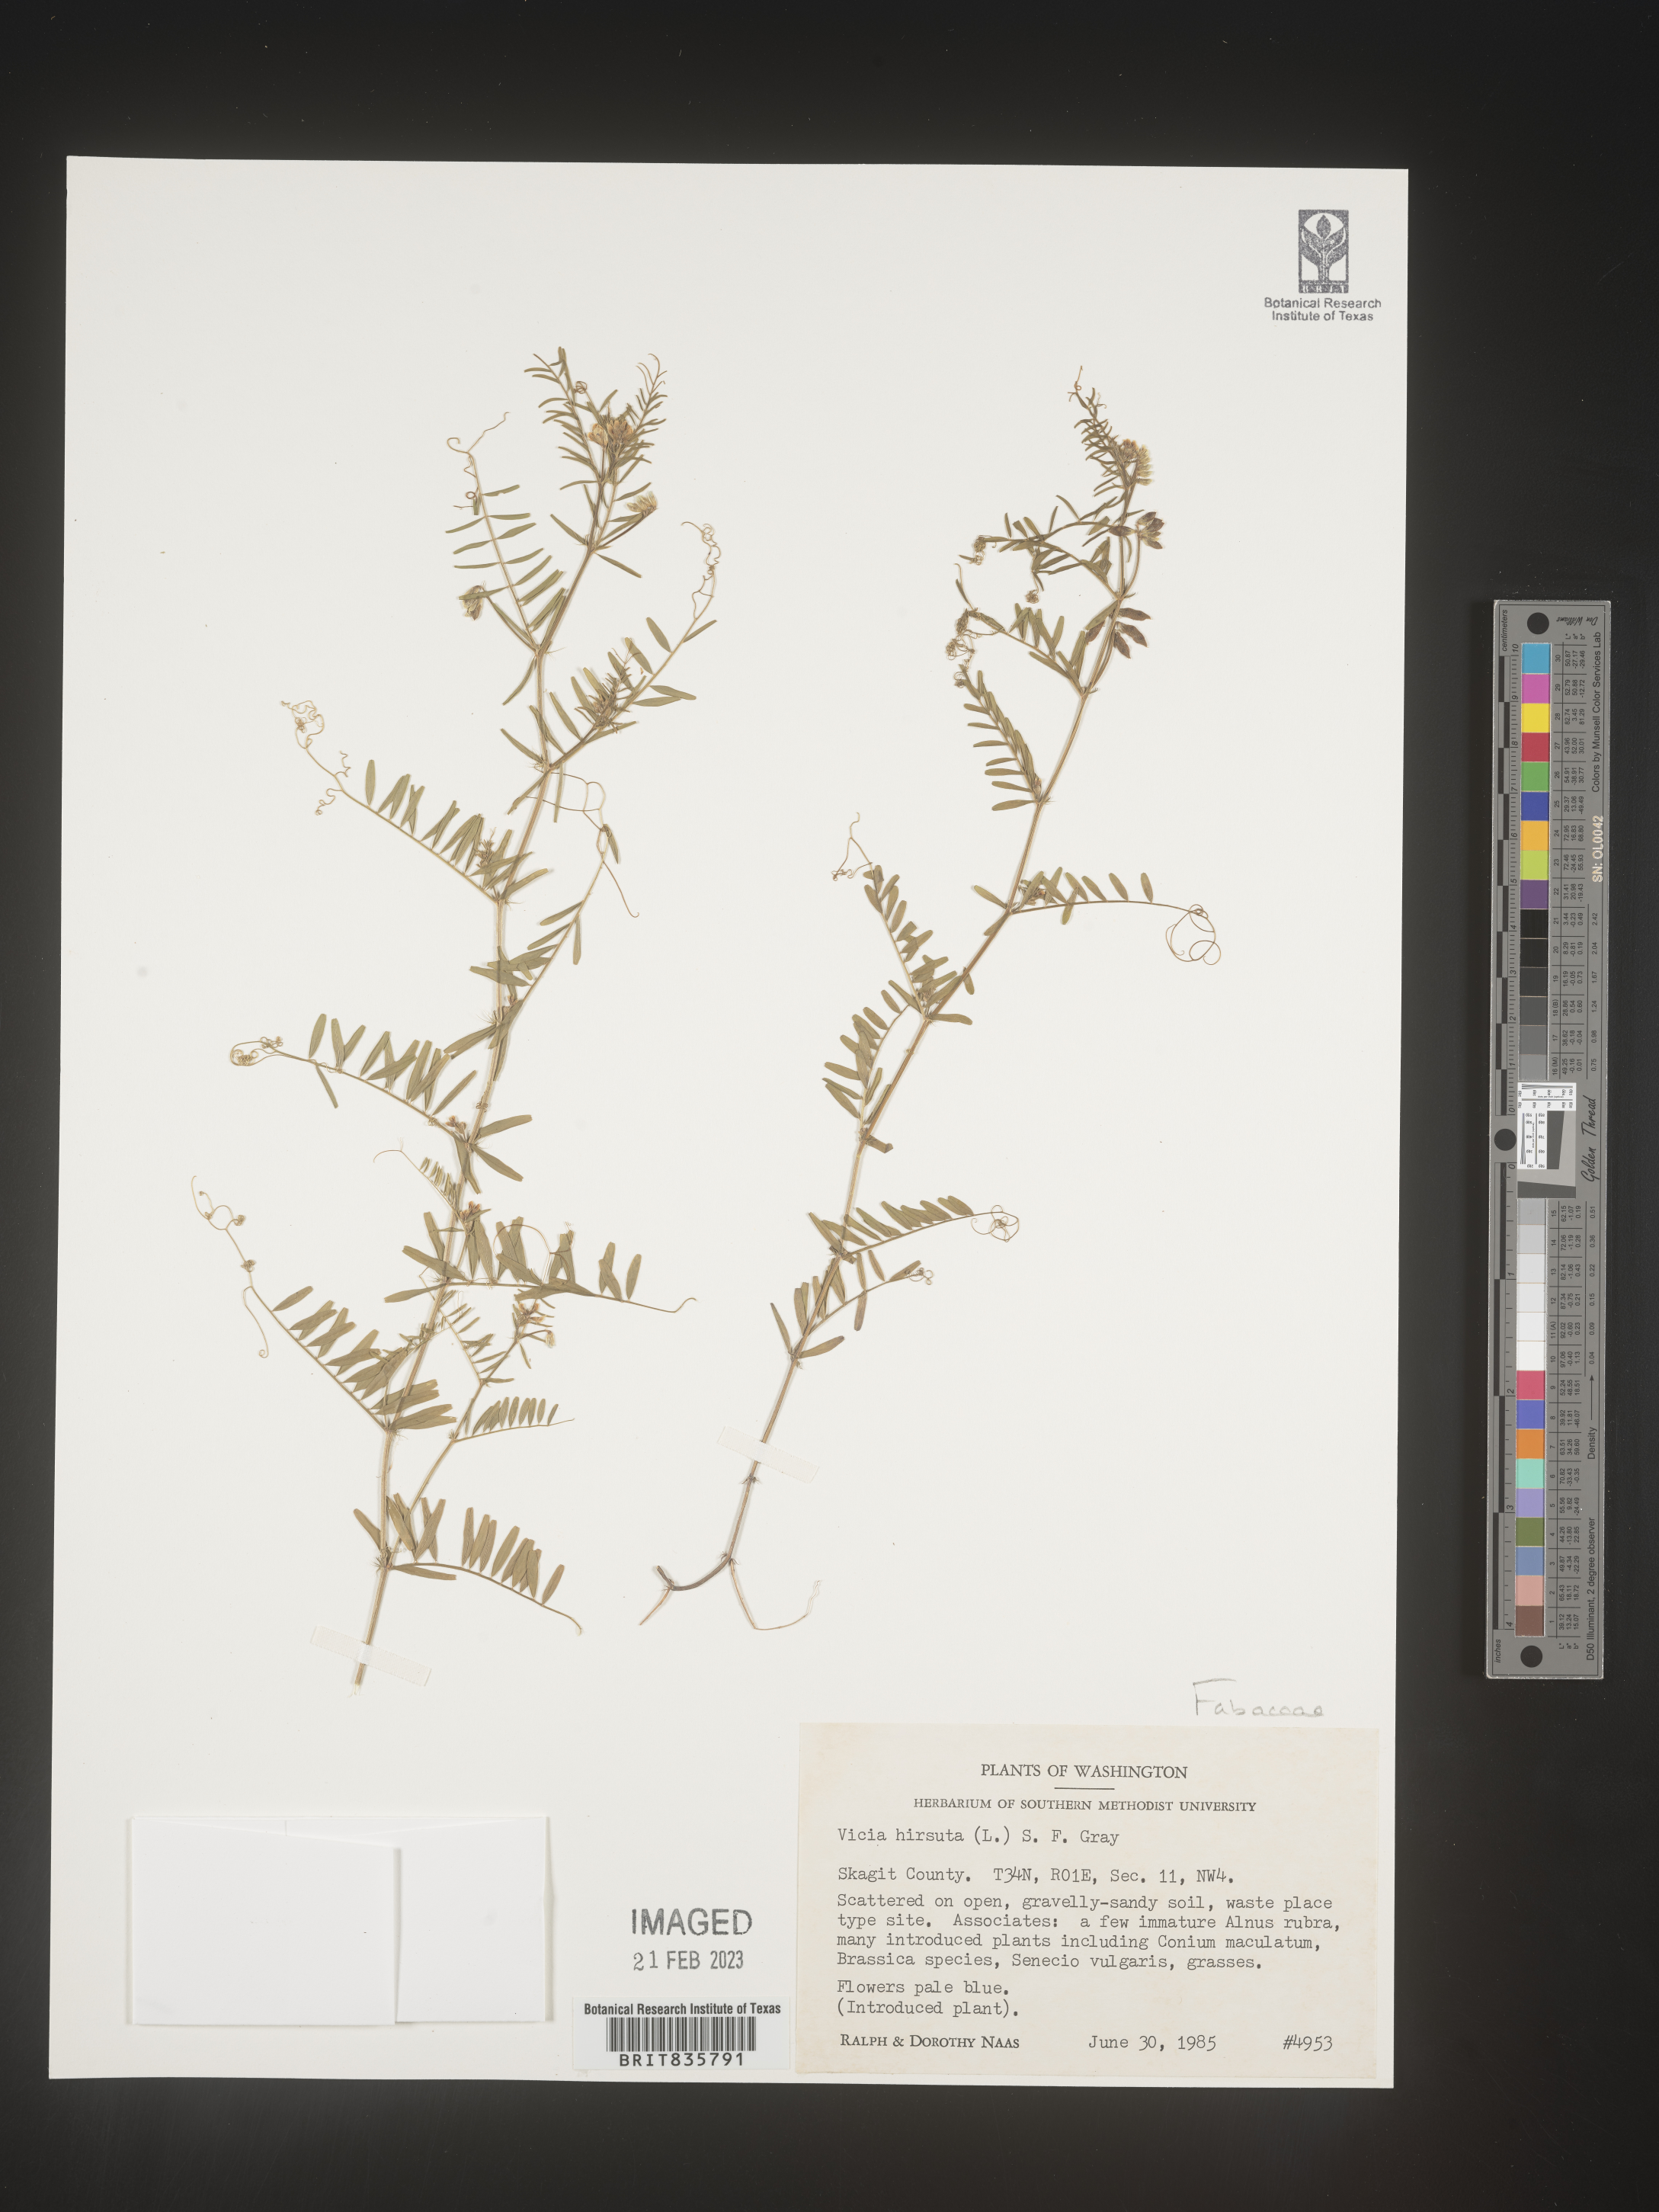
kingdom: Plantae
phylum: Tracheophyta
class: Magnoliopsida
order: Fabales
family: Fabaceae
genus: Vicia
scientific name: Vicia
